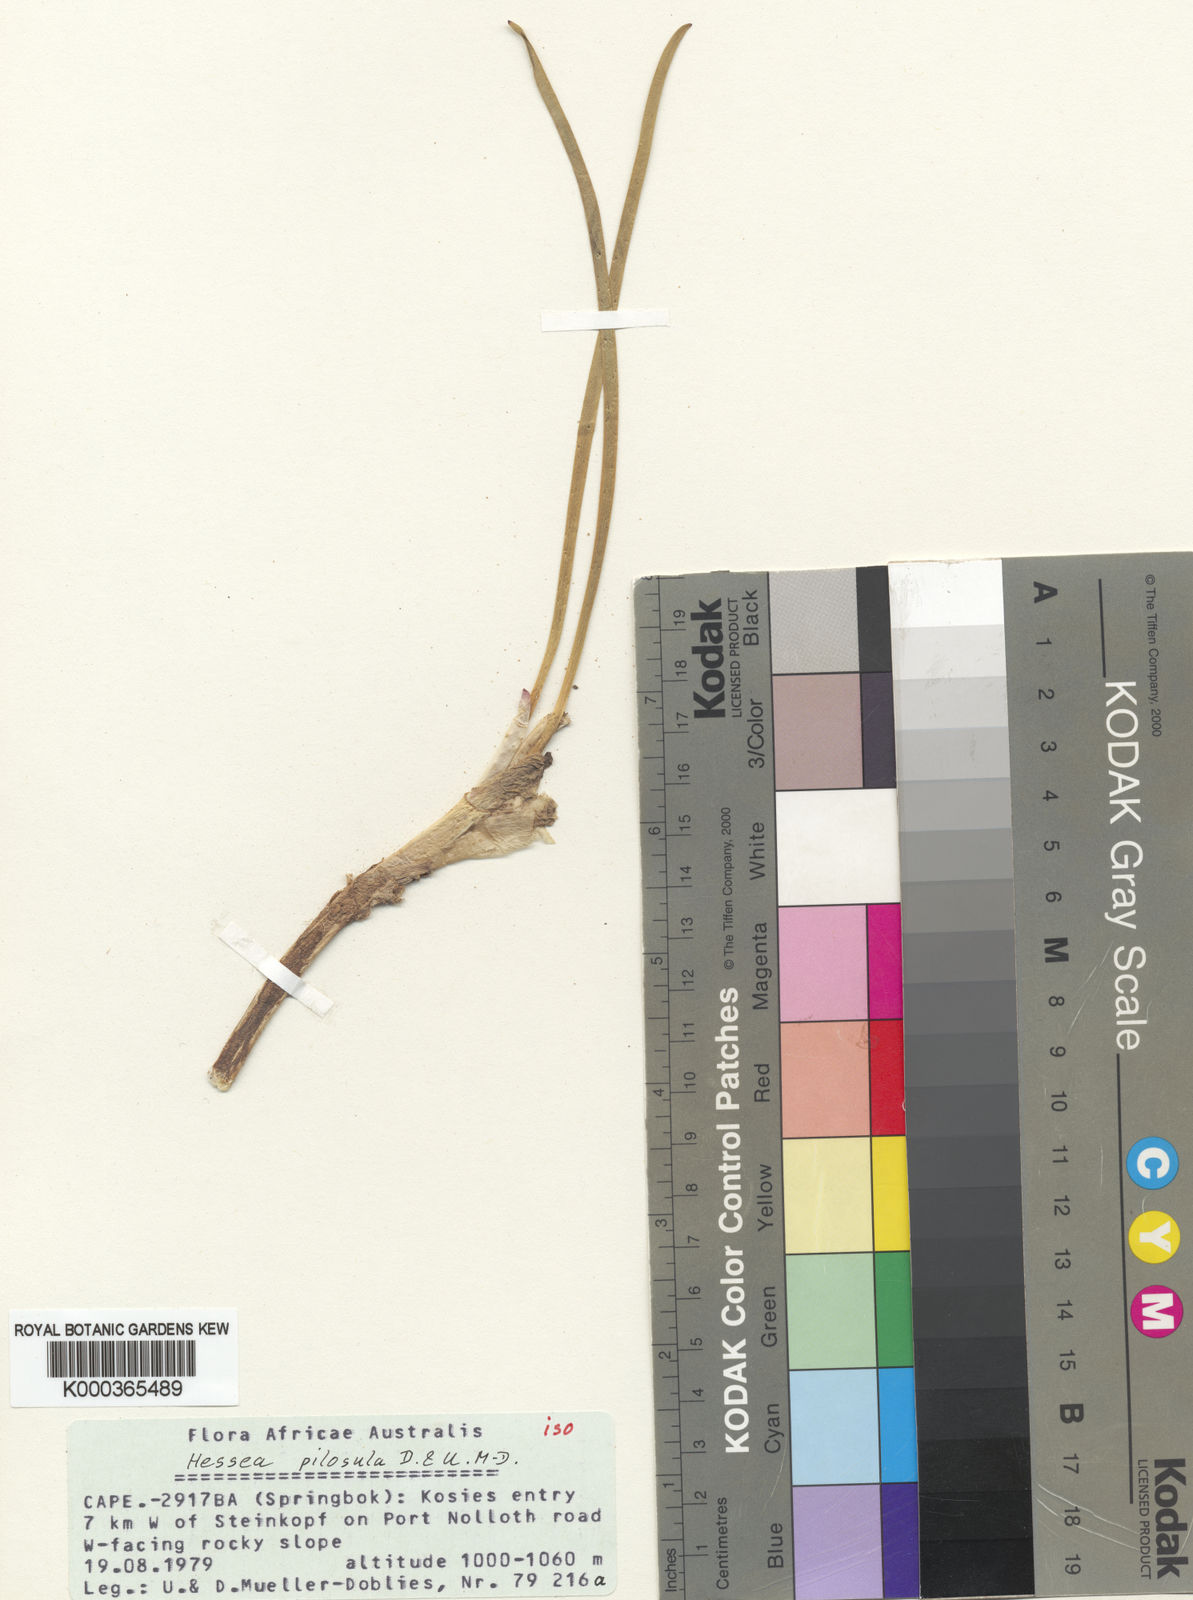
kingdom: Plantae
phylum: Tracheophyta
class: Liliopsida
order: Asparagales
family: Amaryllidaceae
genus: Hessea
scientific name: Hessea
